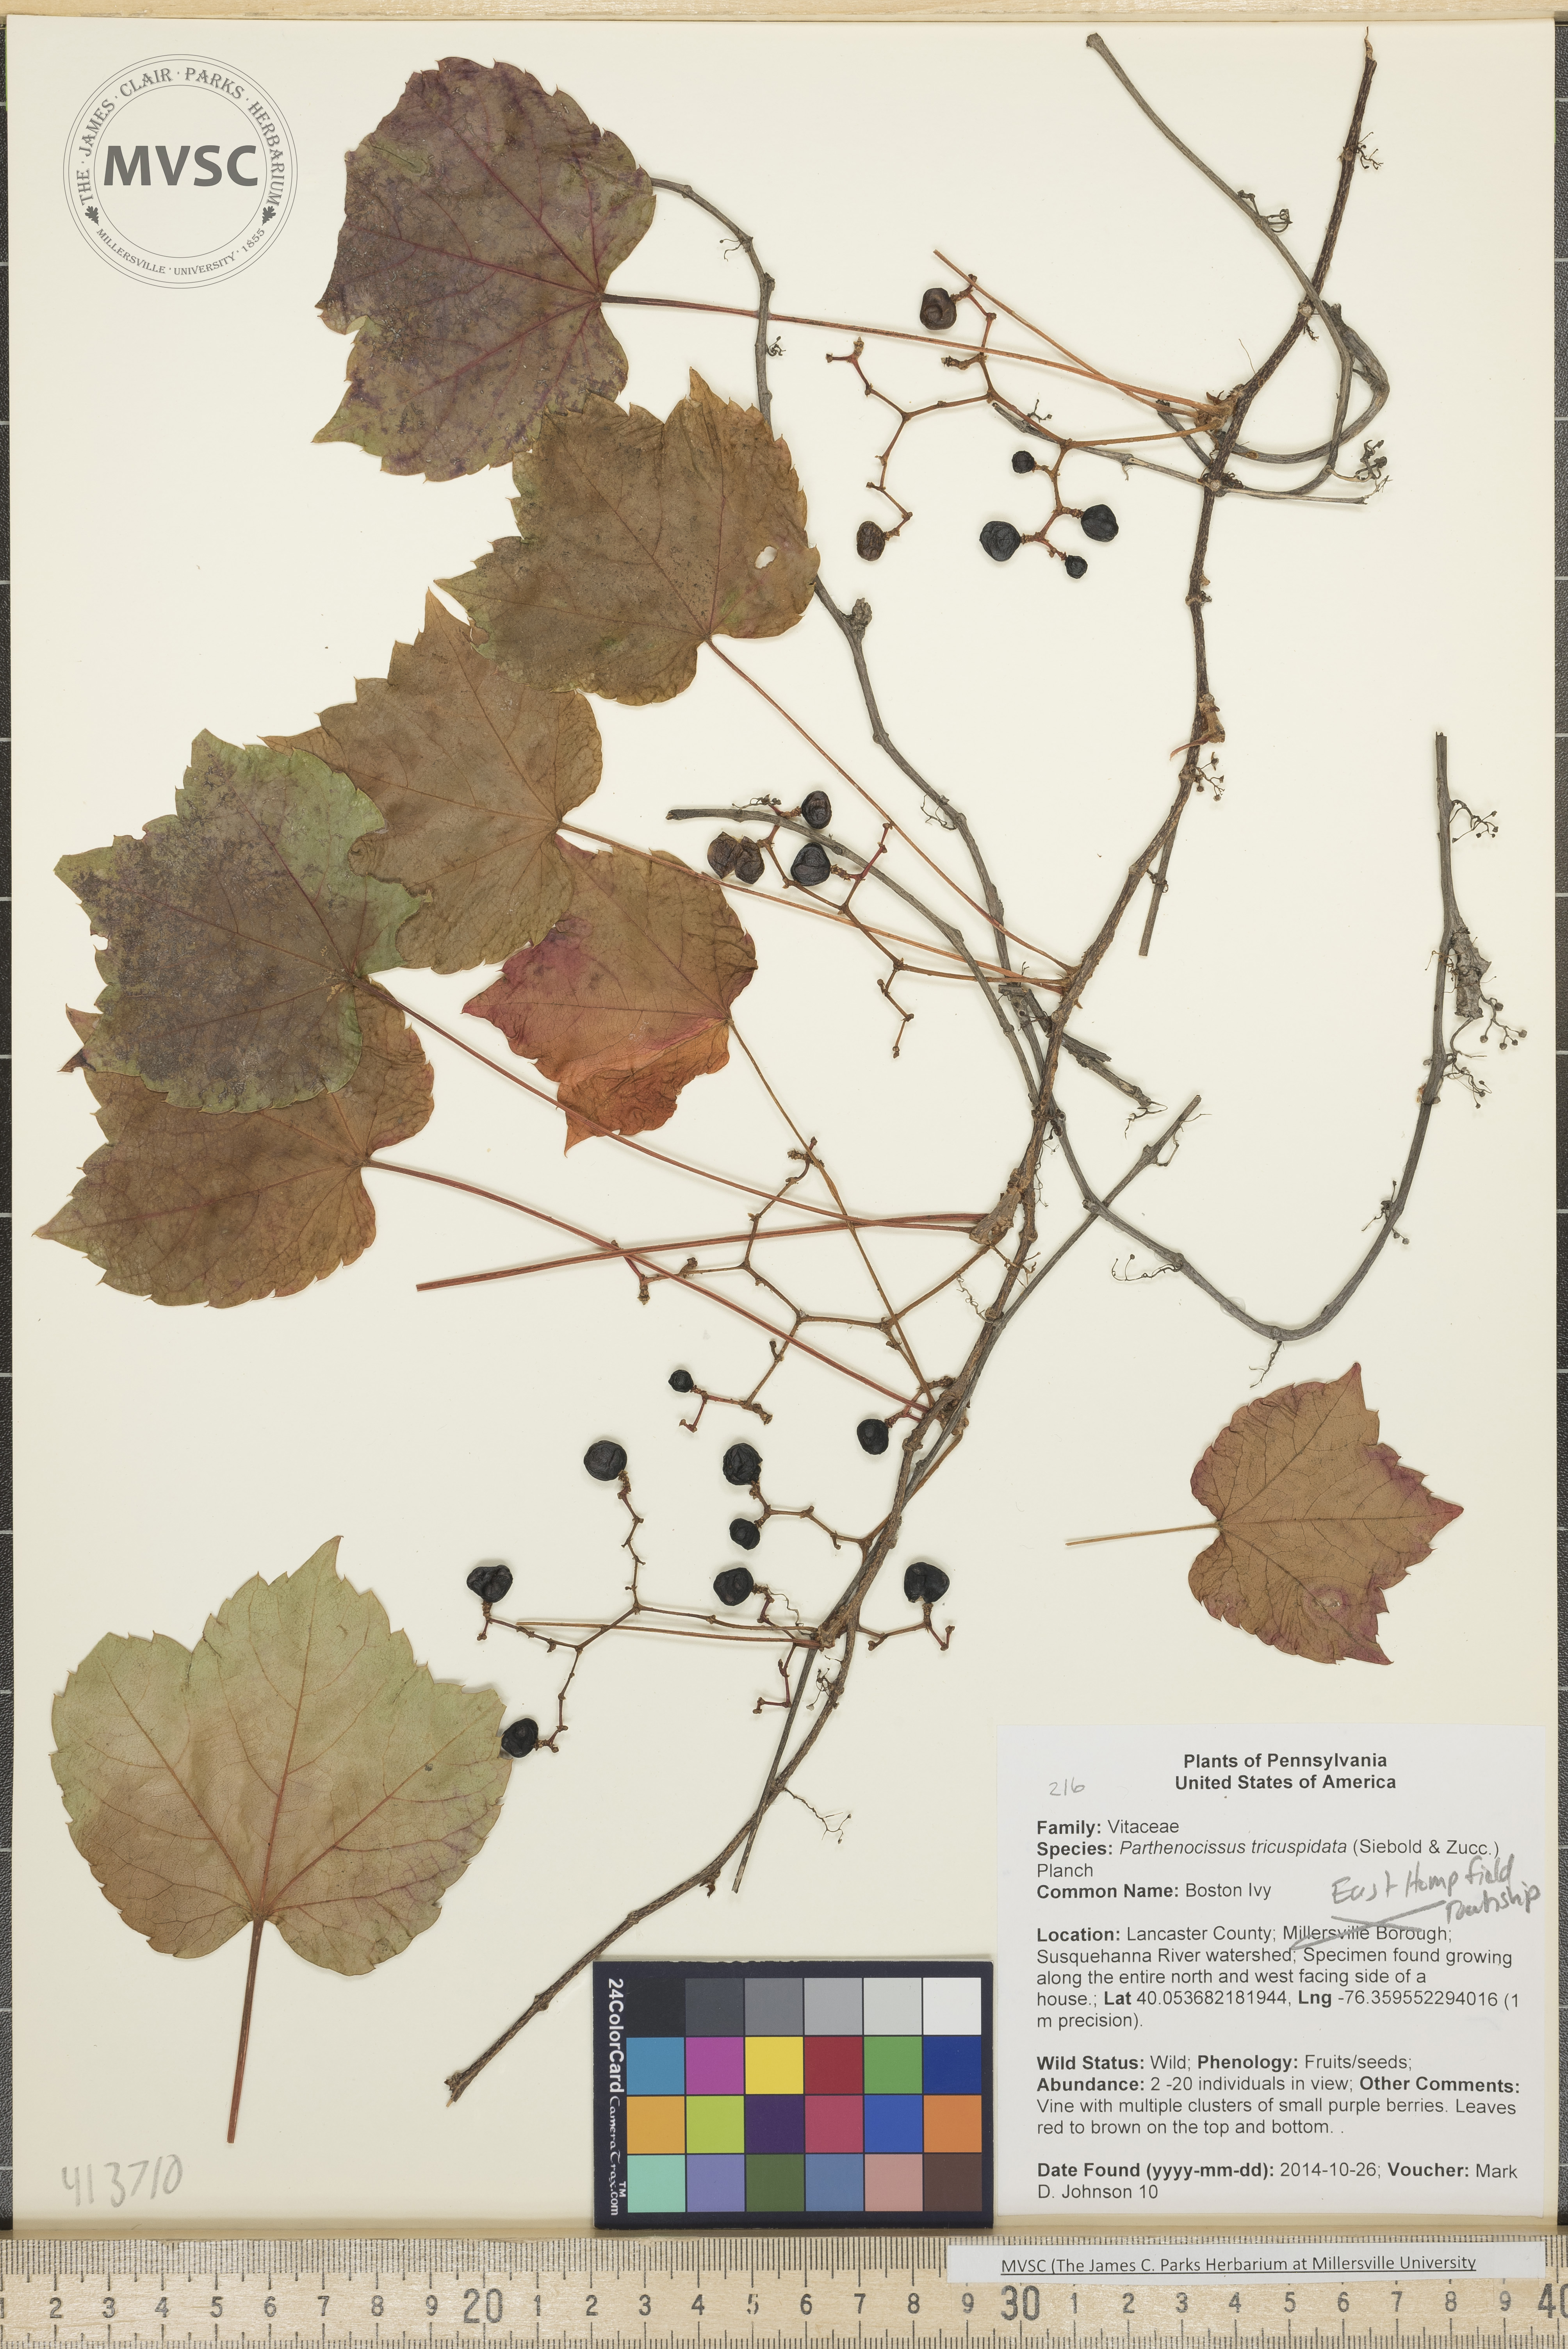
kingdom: Plantae
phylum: Tracheophyta
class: Magnoliopsida
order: Vitales
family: Vitaceae
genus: Parthenocissus
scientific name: Parthenocissus tricuspidata
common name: Boston Ivy
